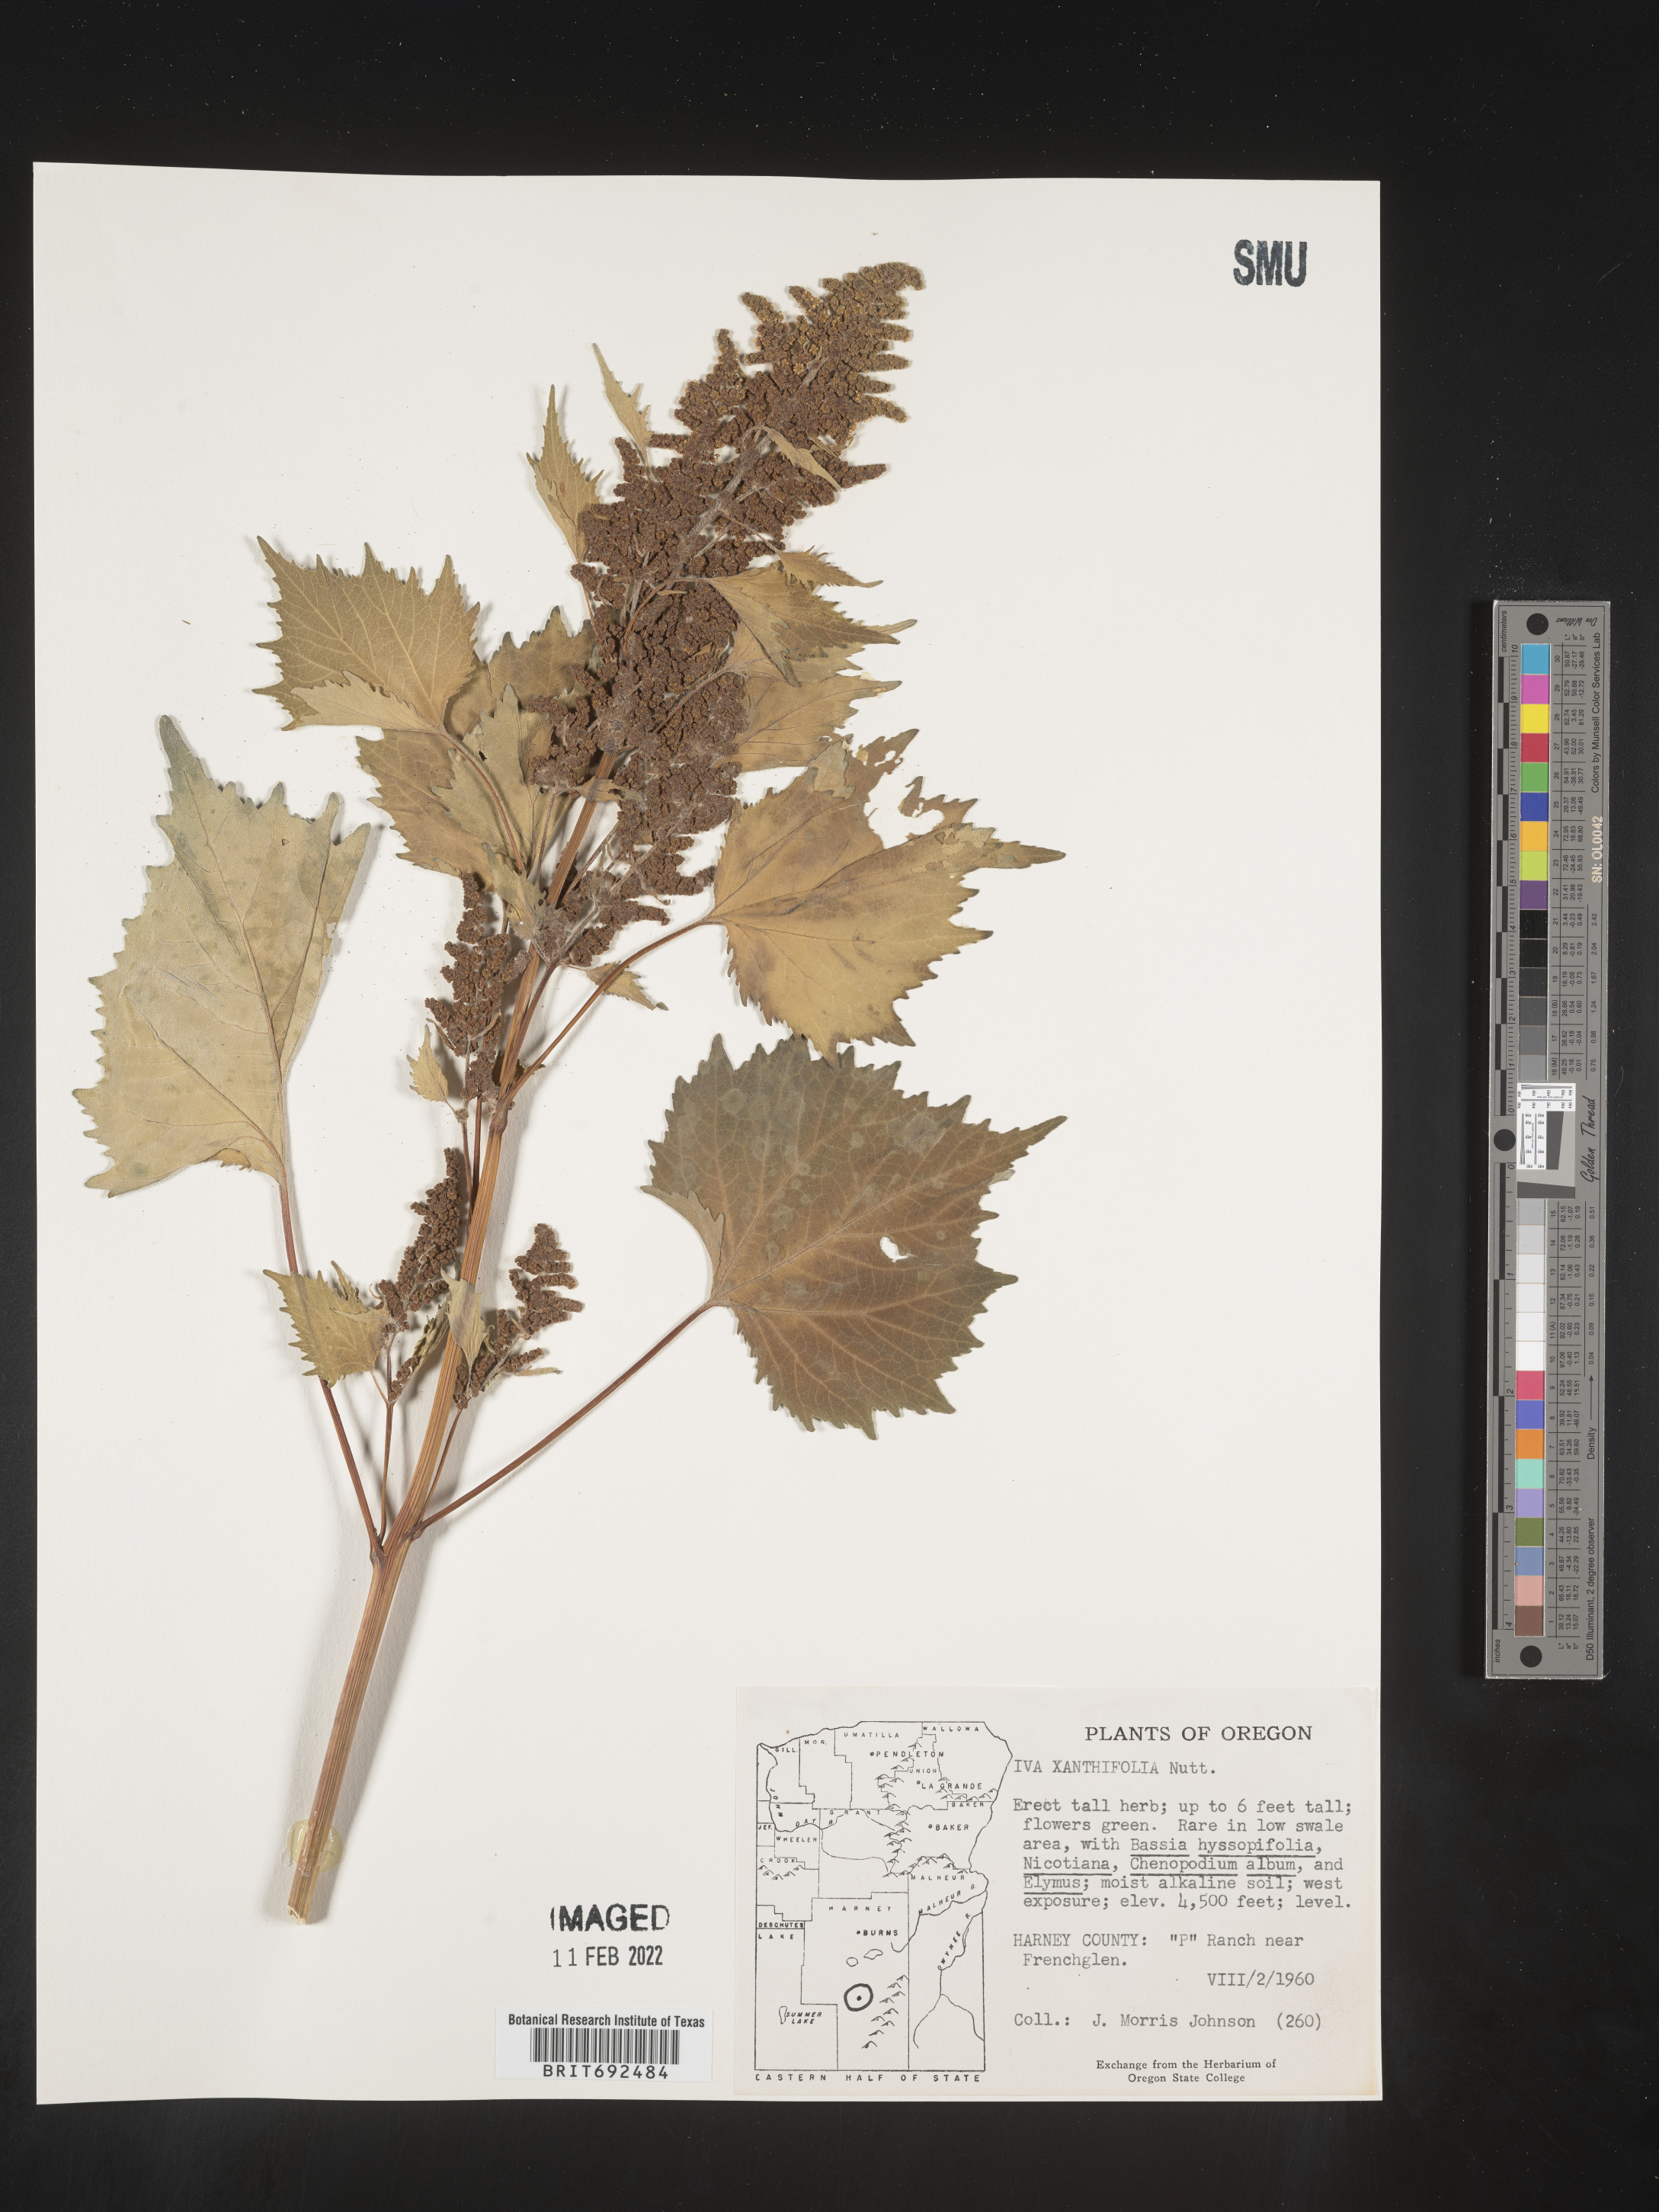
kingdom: Plantae
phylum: Tracheophyta
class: Magnoliopsida
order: Asterales
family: Asteraceae
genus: Cyclachaena
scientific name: Cyclachaena
